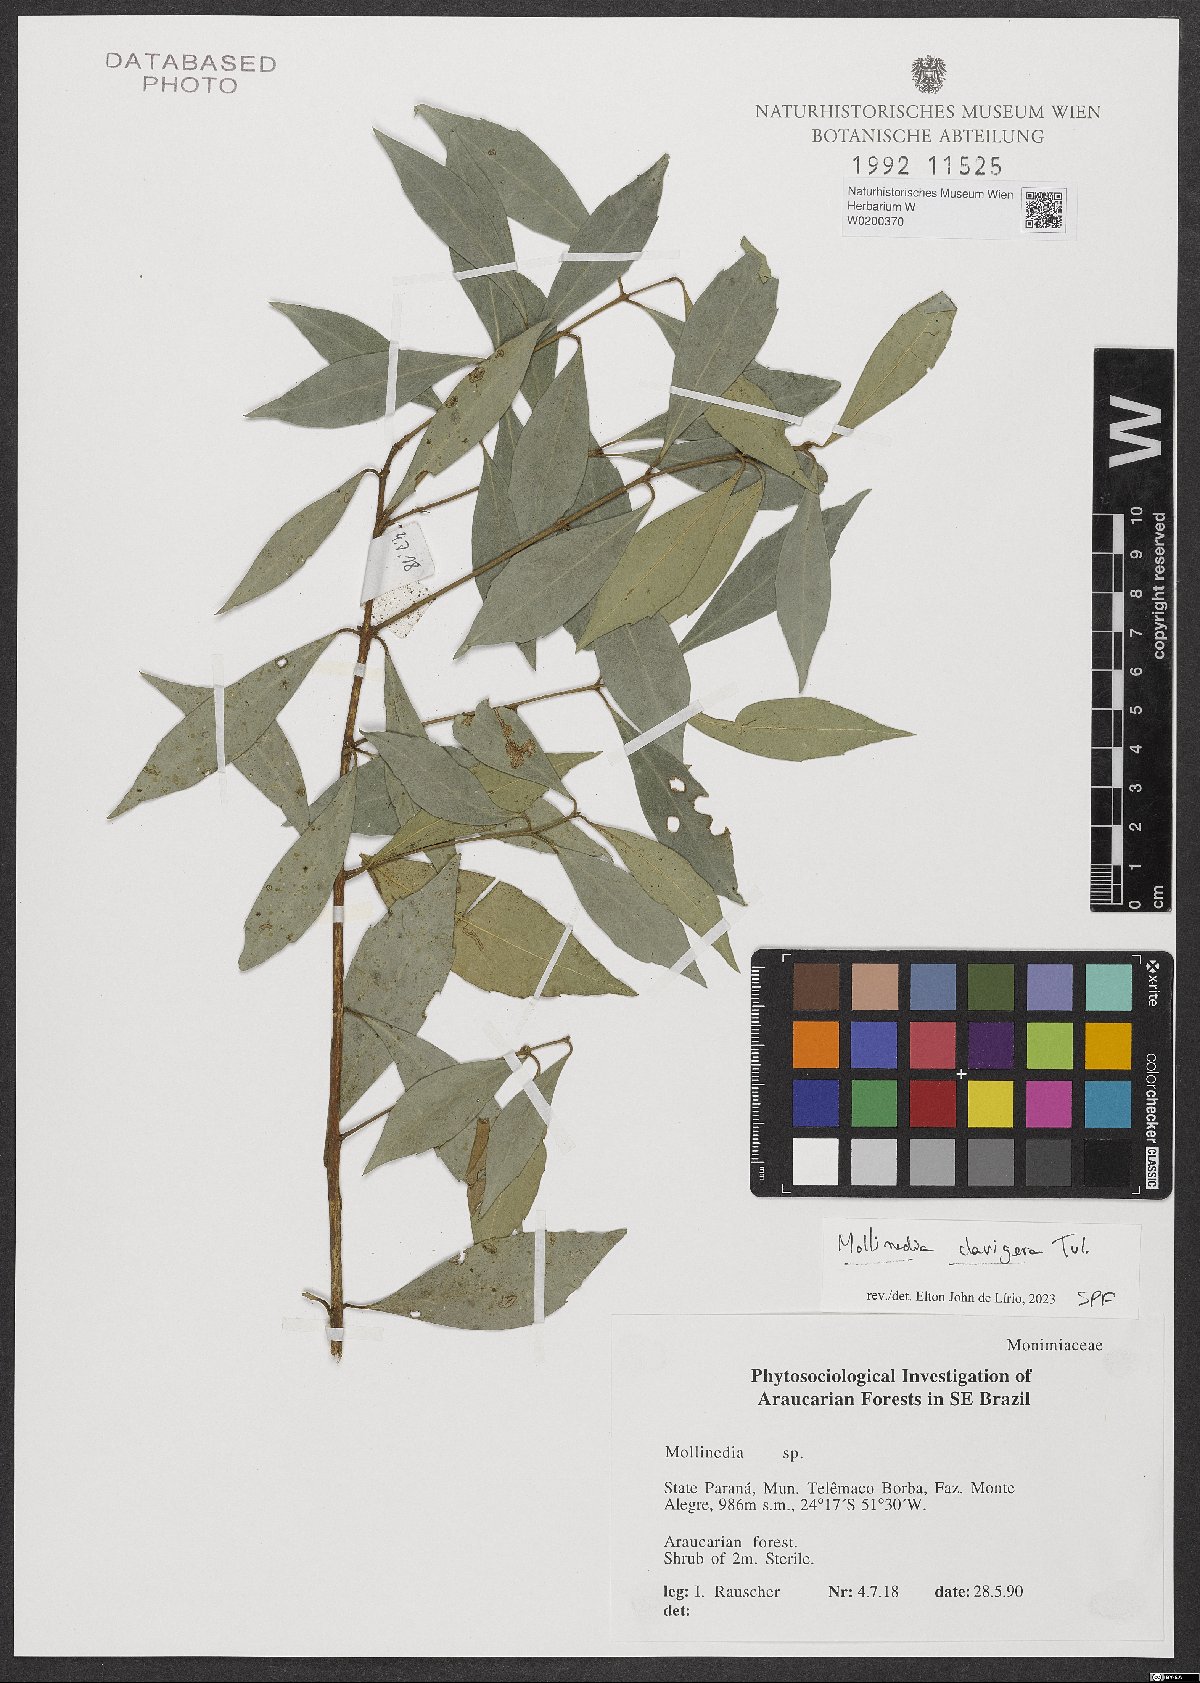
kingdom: Plantae
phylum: Tracheophyta
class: Magnoliopsida
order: Laurales
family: Monimiaceae
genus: Mollinedia
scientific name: Mollinedia clavigera
